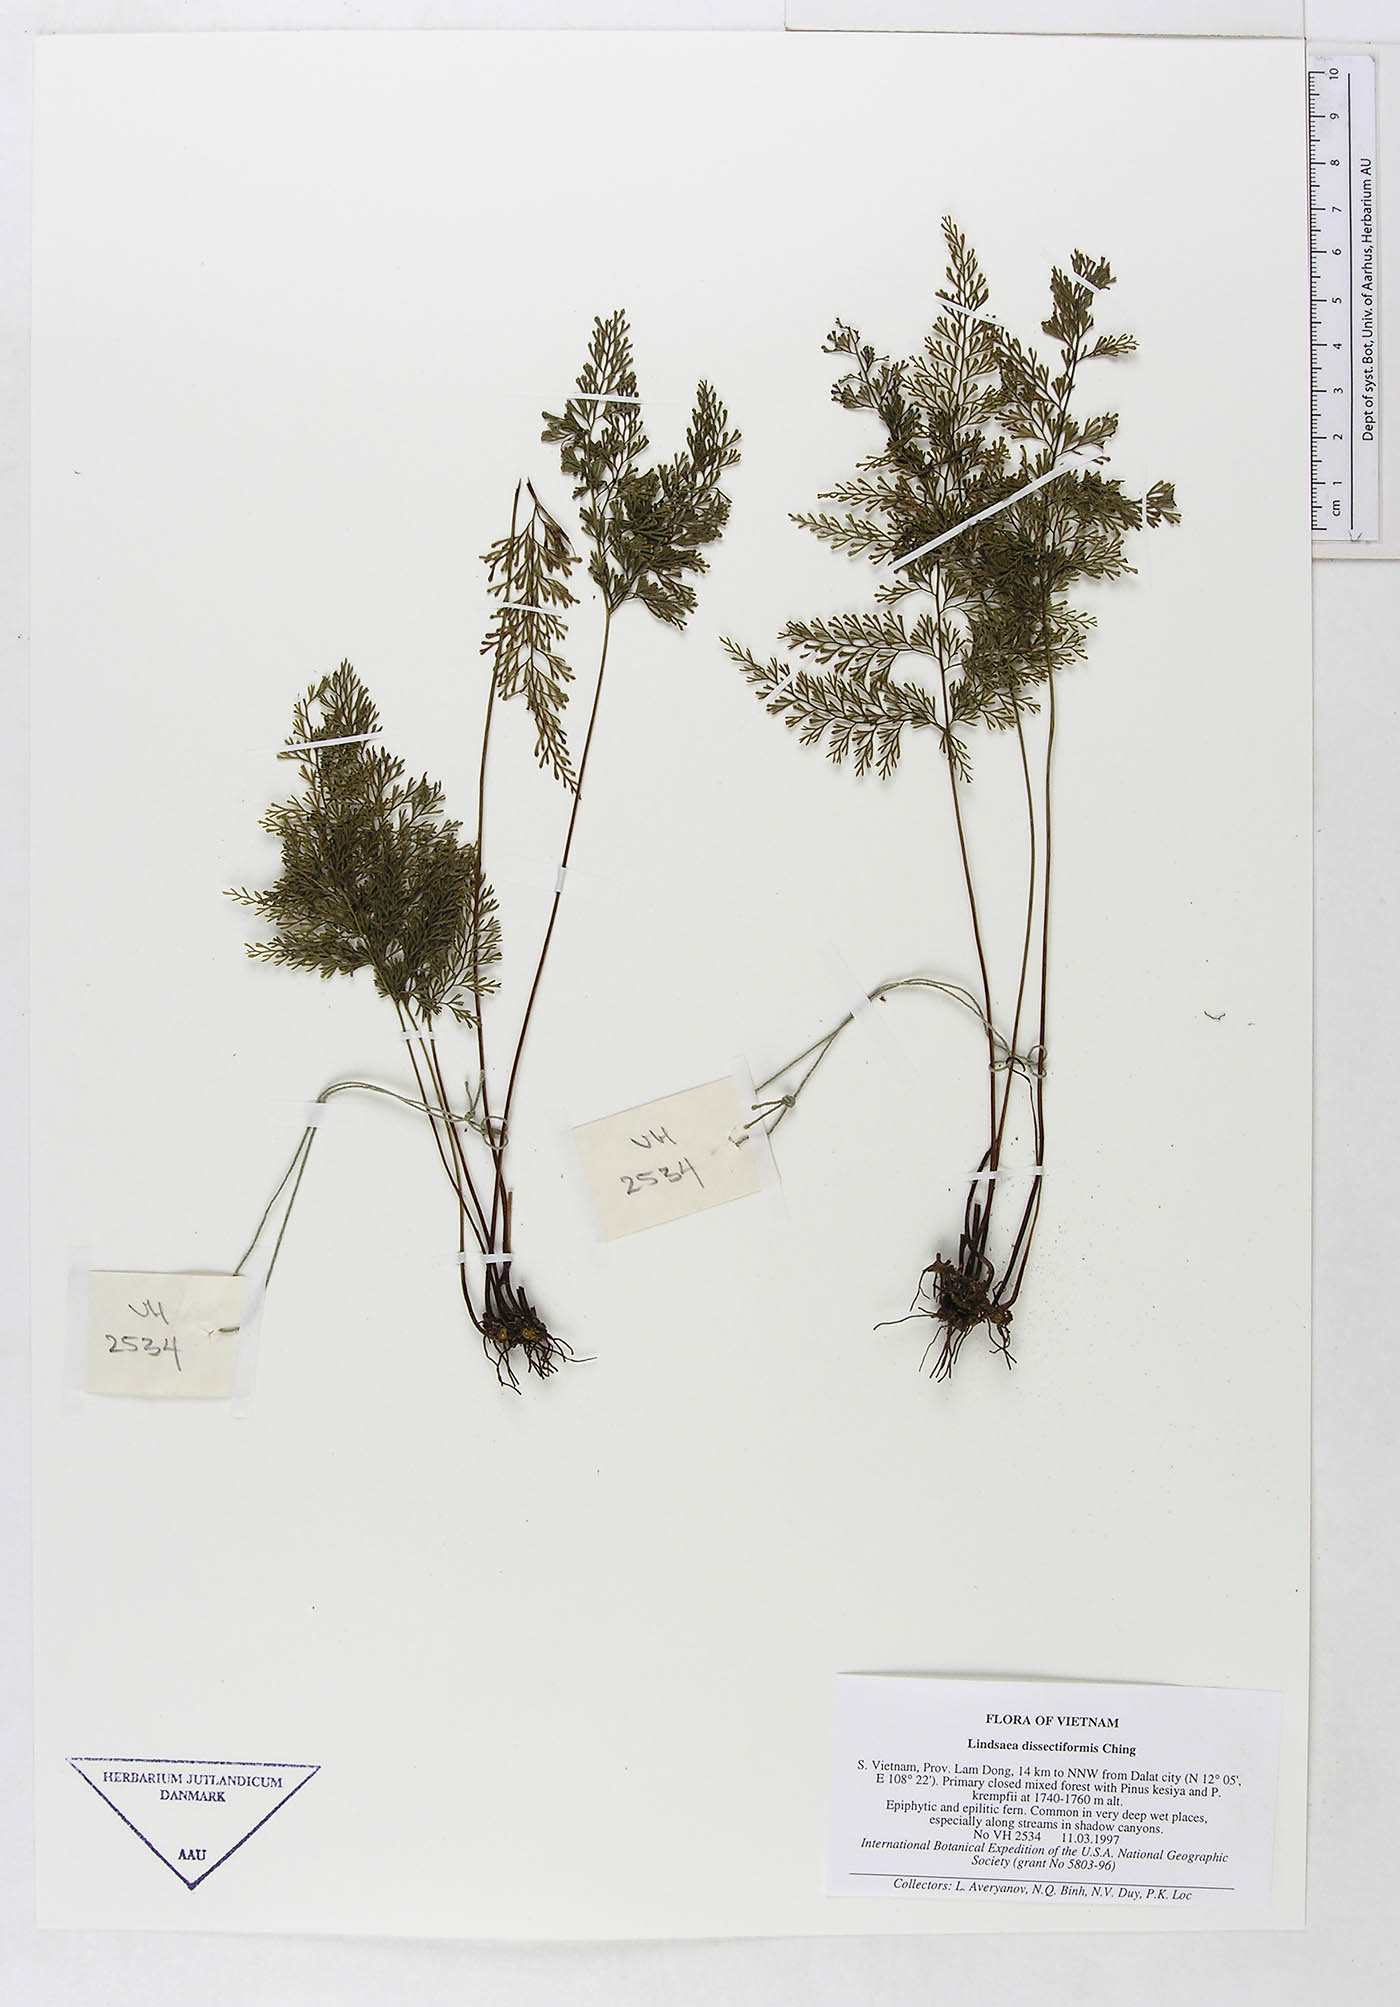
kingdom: Plantae
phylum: Tracheophyta
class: Polypodiopsida
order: Polypodiales
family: Dennstaedtiaceae
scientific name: Dennstaedtiaceae
